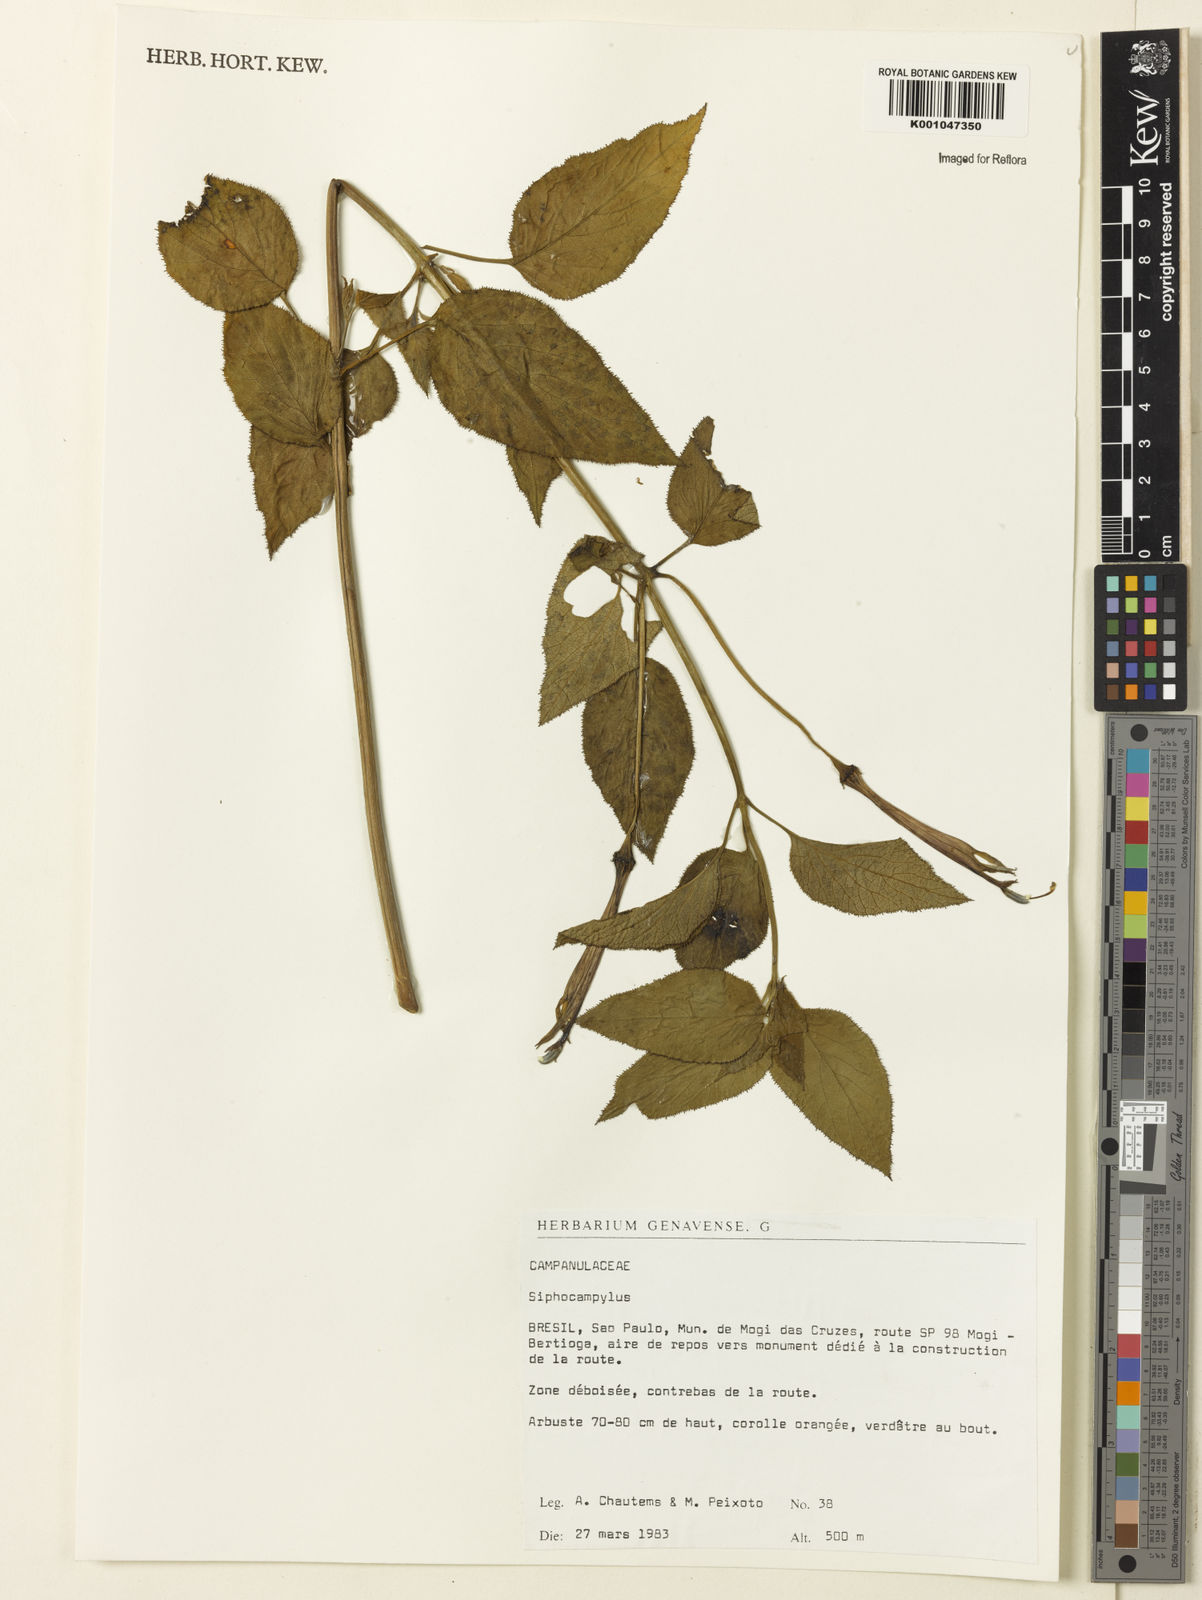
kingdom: Plantae
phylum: Tracheophyta
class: Magnoliopsida
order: Asterales
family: Campanulaceae
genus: Siphocampylus
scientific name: Siphocampylus
